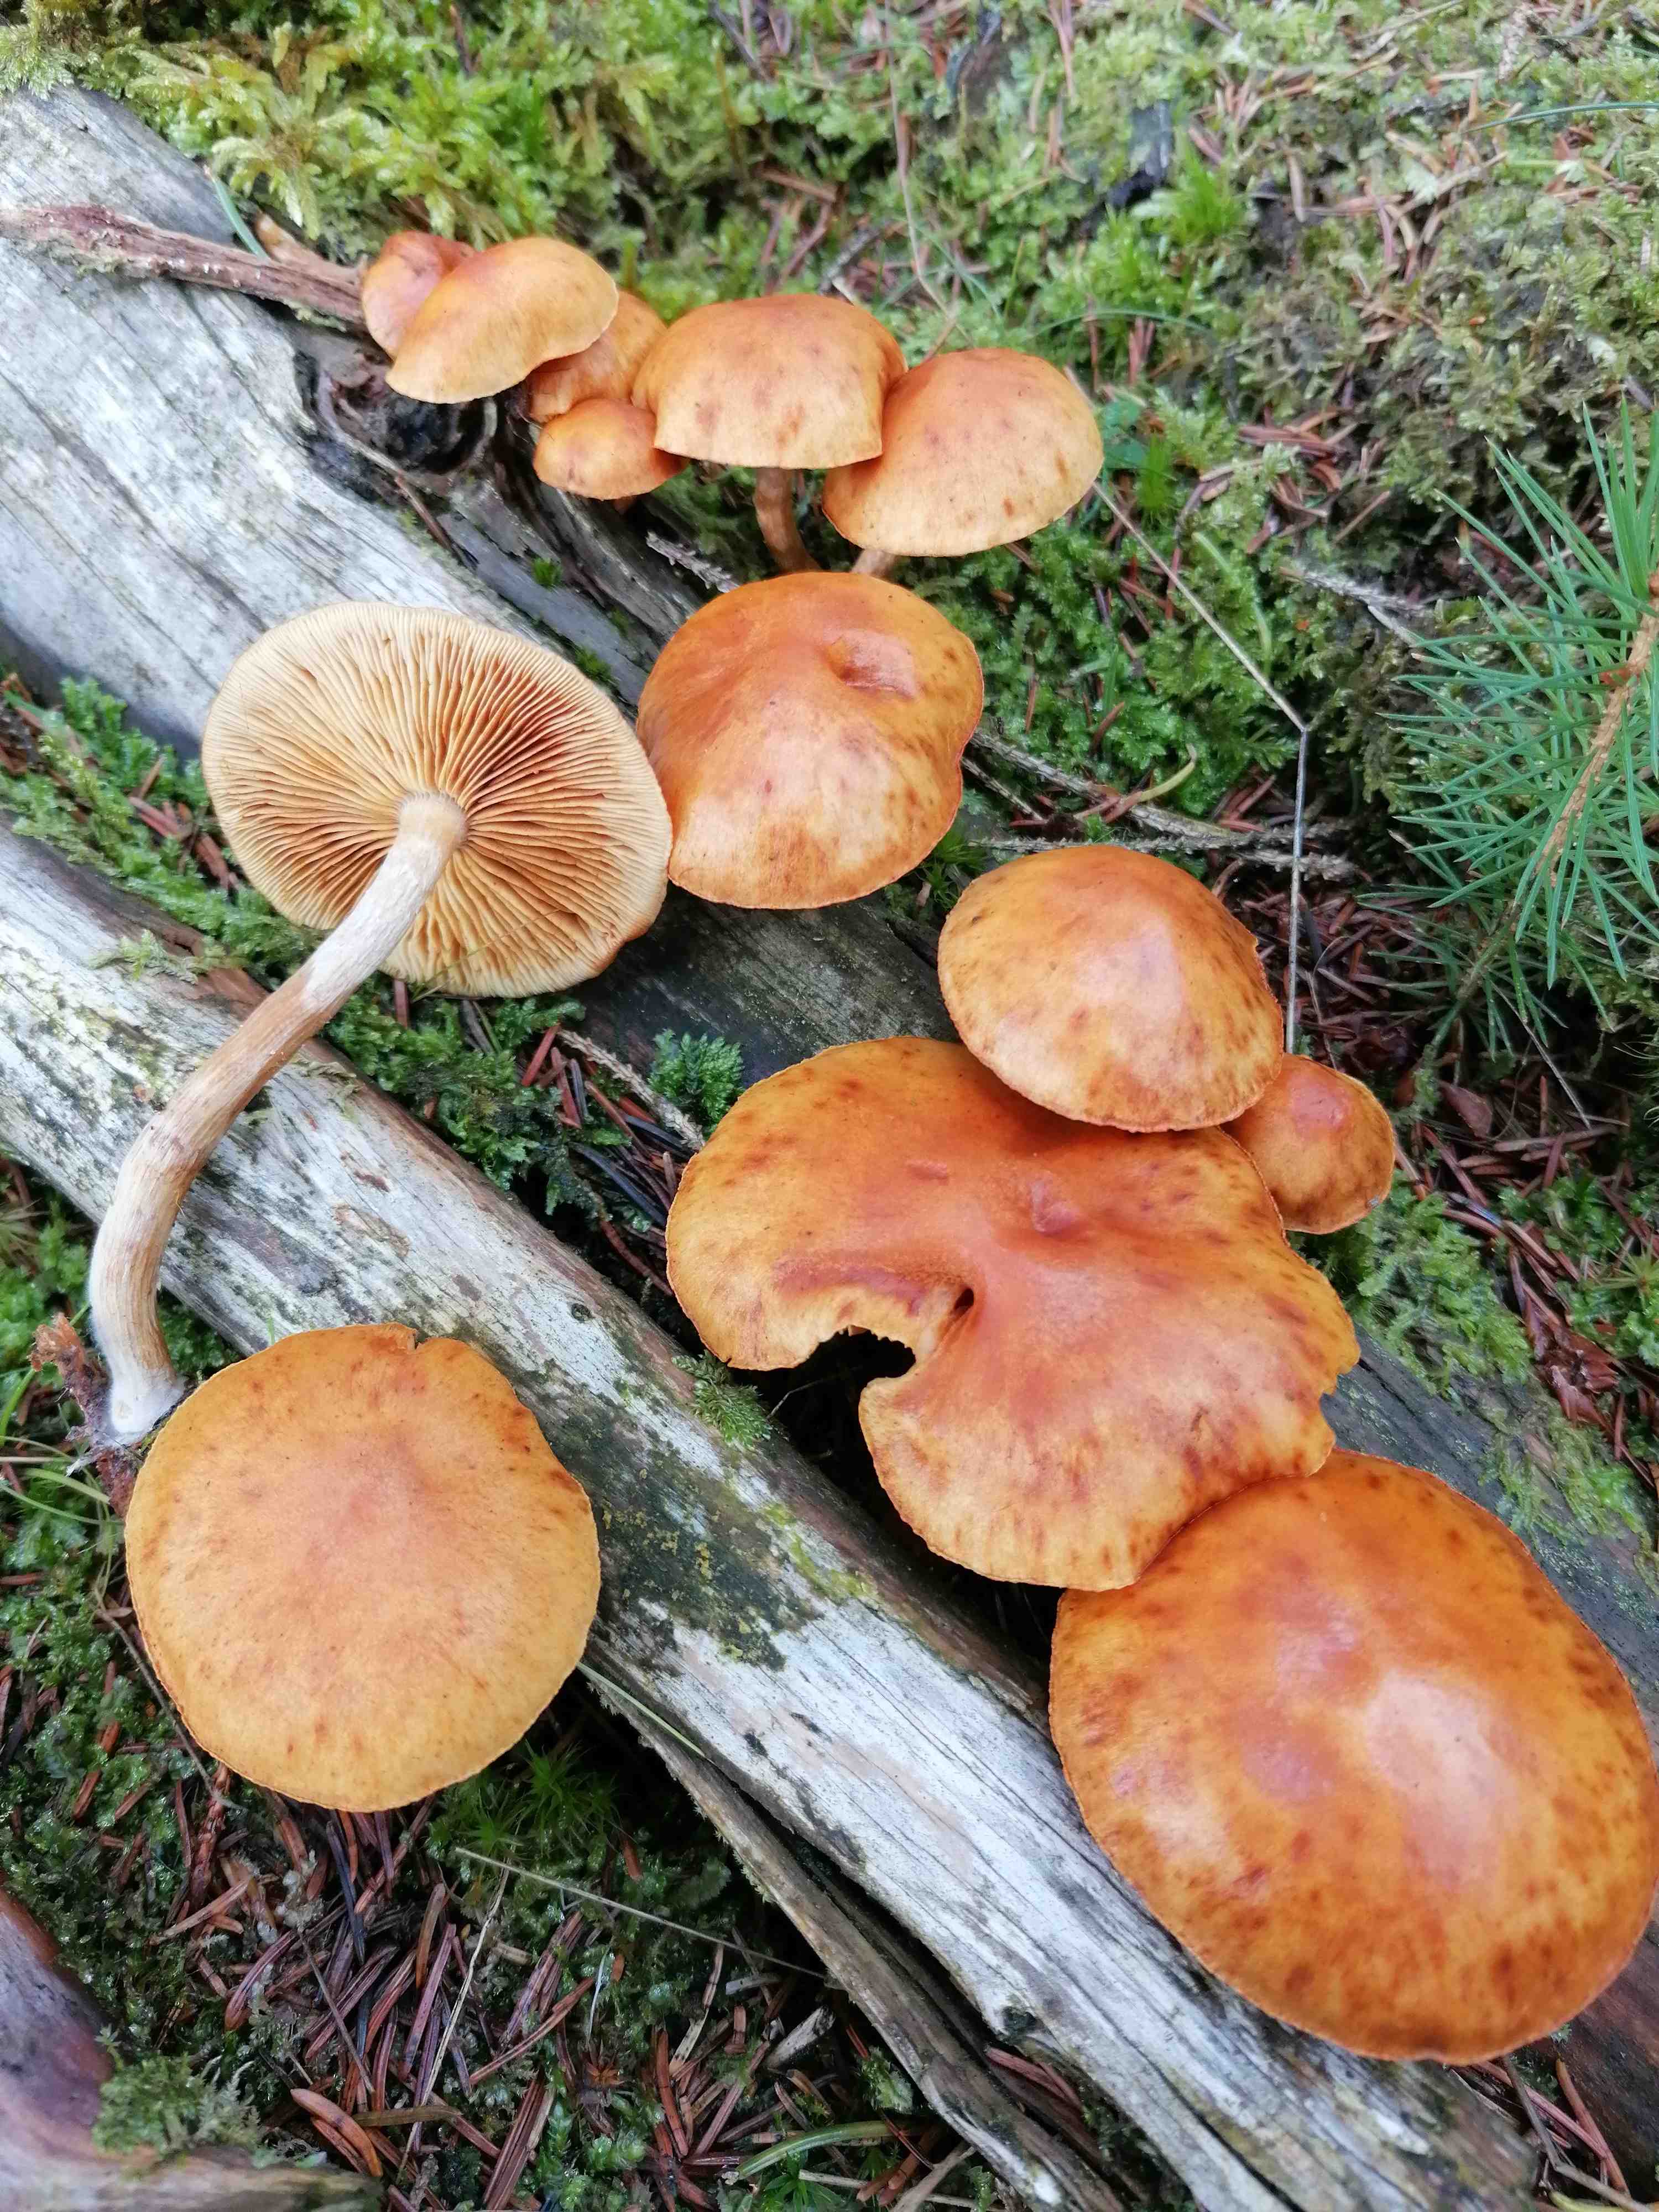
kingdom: Fungi
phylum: Basidiomycota
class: Agaricomycetes
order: Agaricales
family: Hymenogastraceae
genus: Gymnopilus
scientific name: Gymnopilus penetrans
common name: plettet flammehat
